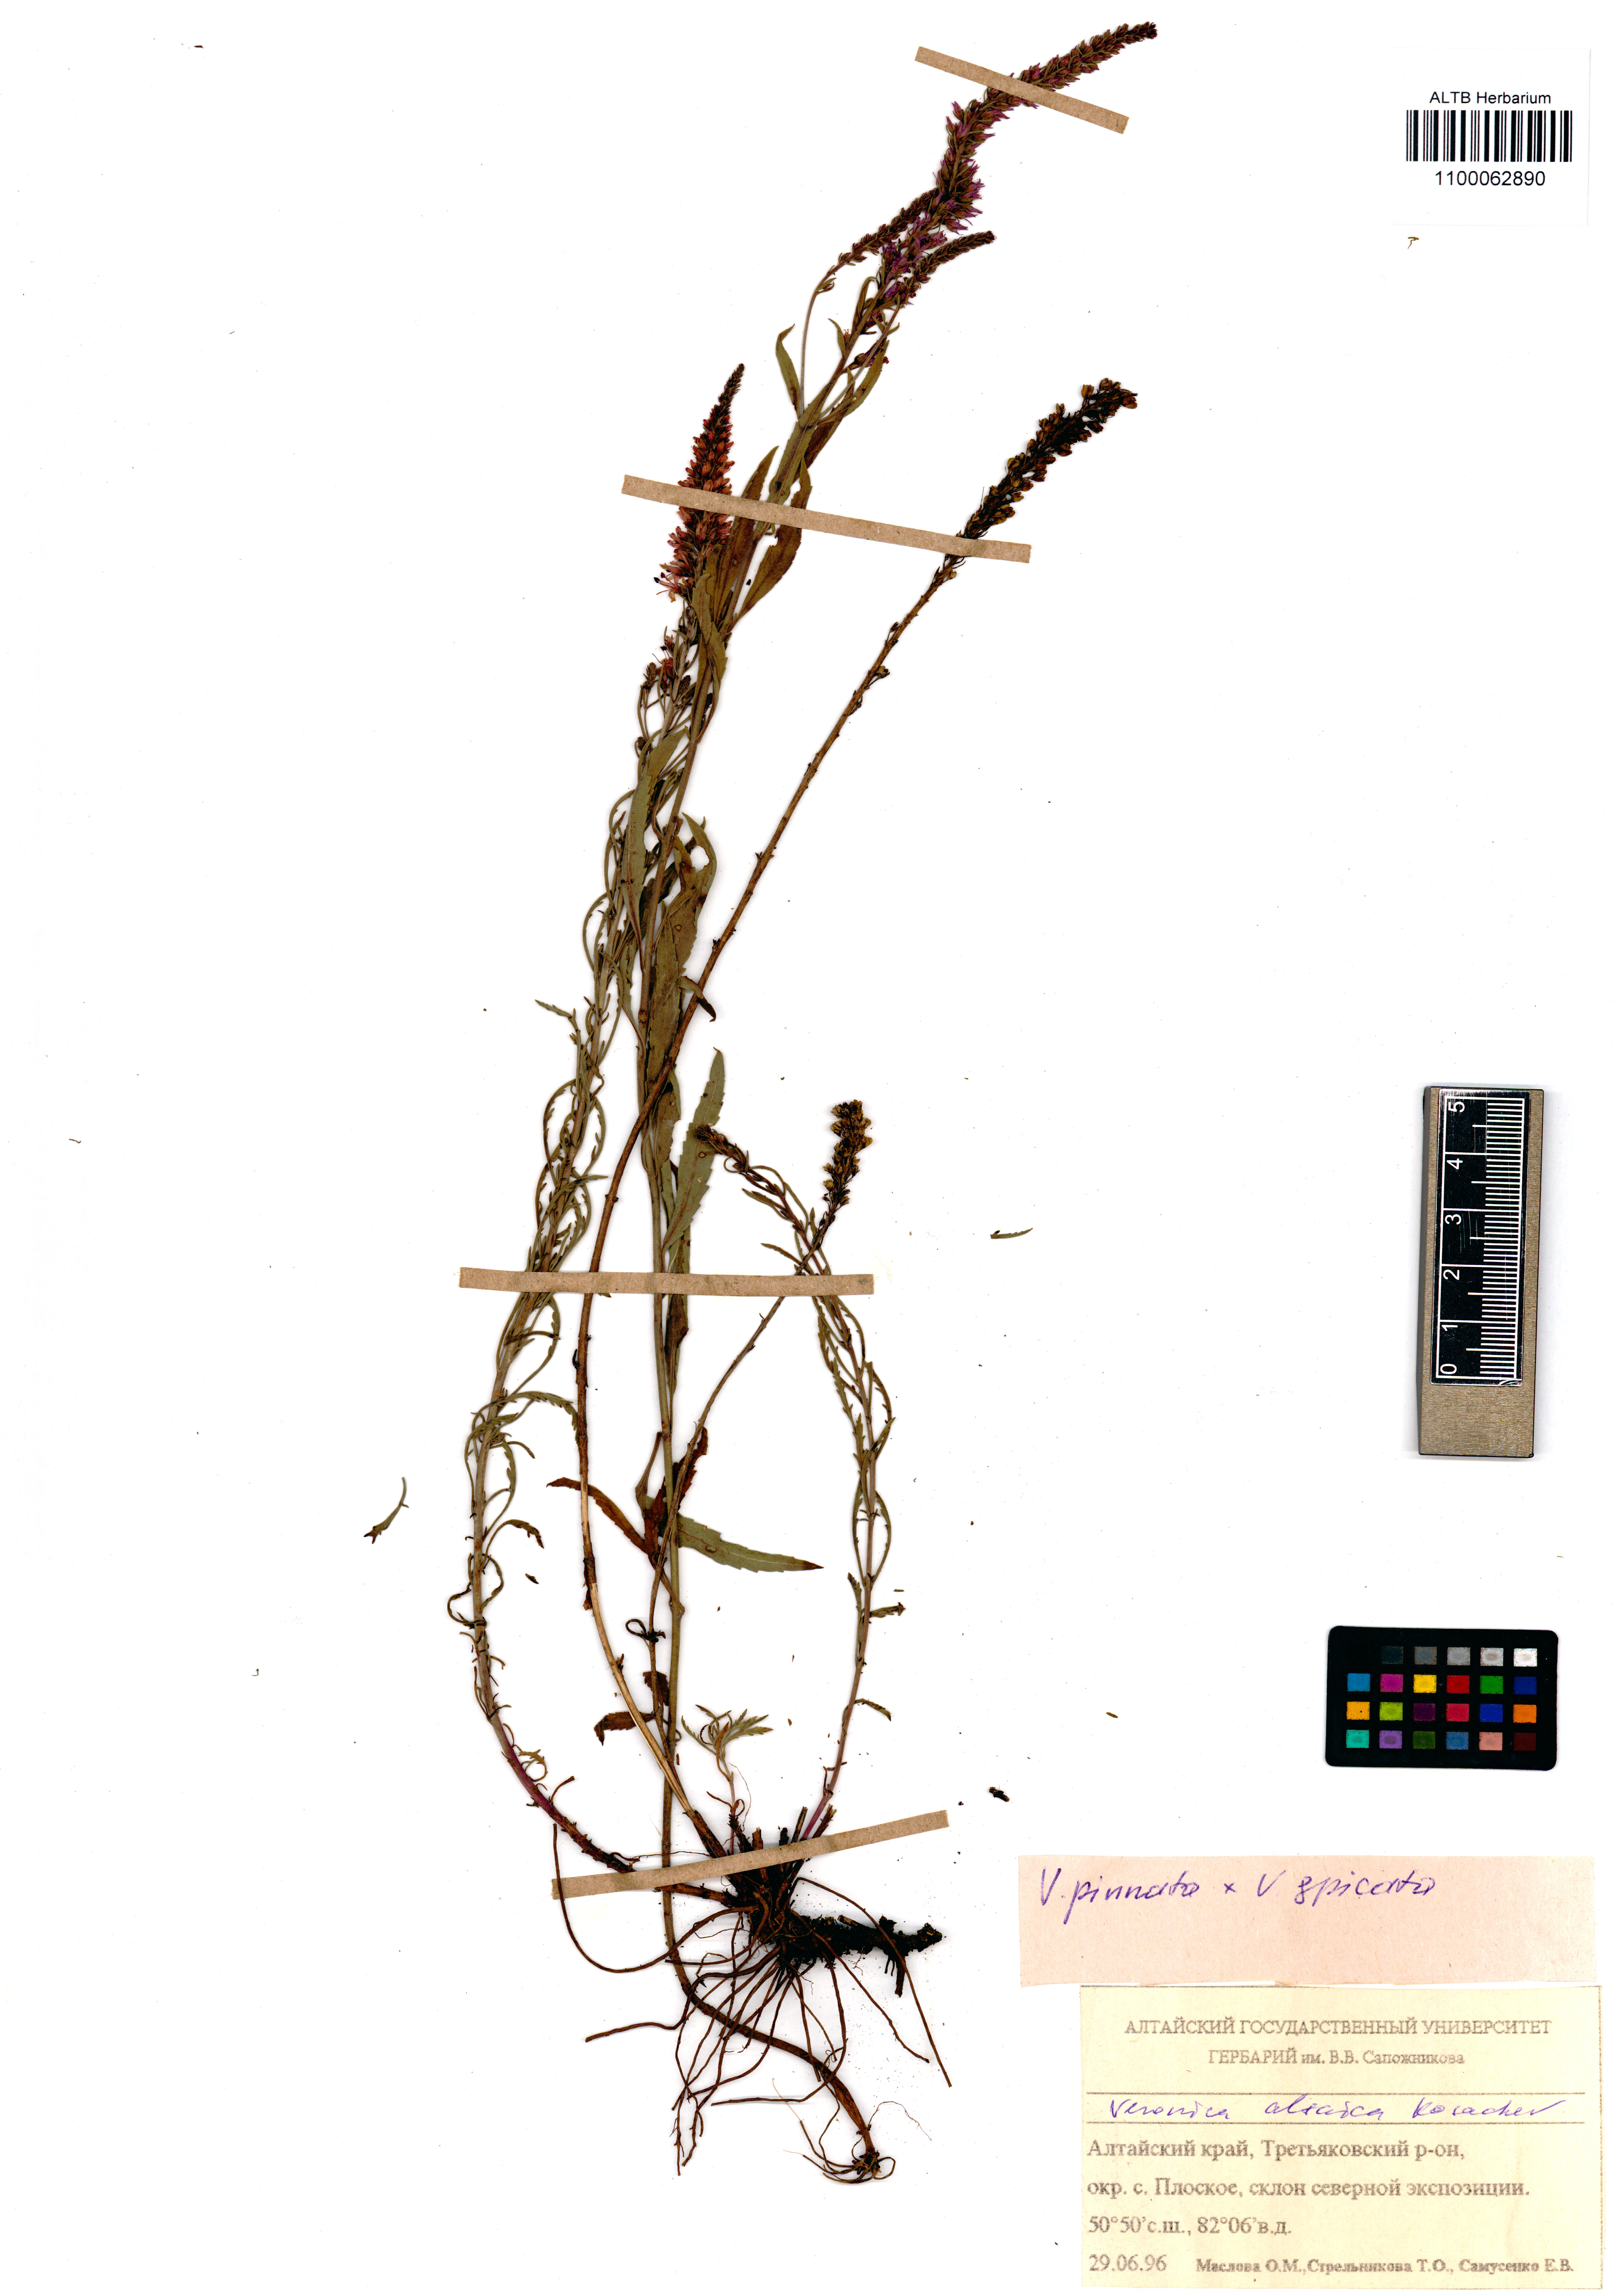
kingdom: Plantae
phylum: Tracheophyta
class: Magnoliopsida
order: Lamiales
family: Plantaginaceae
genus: Veronica
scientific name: Veronica altaica
